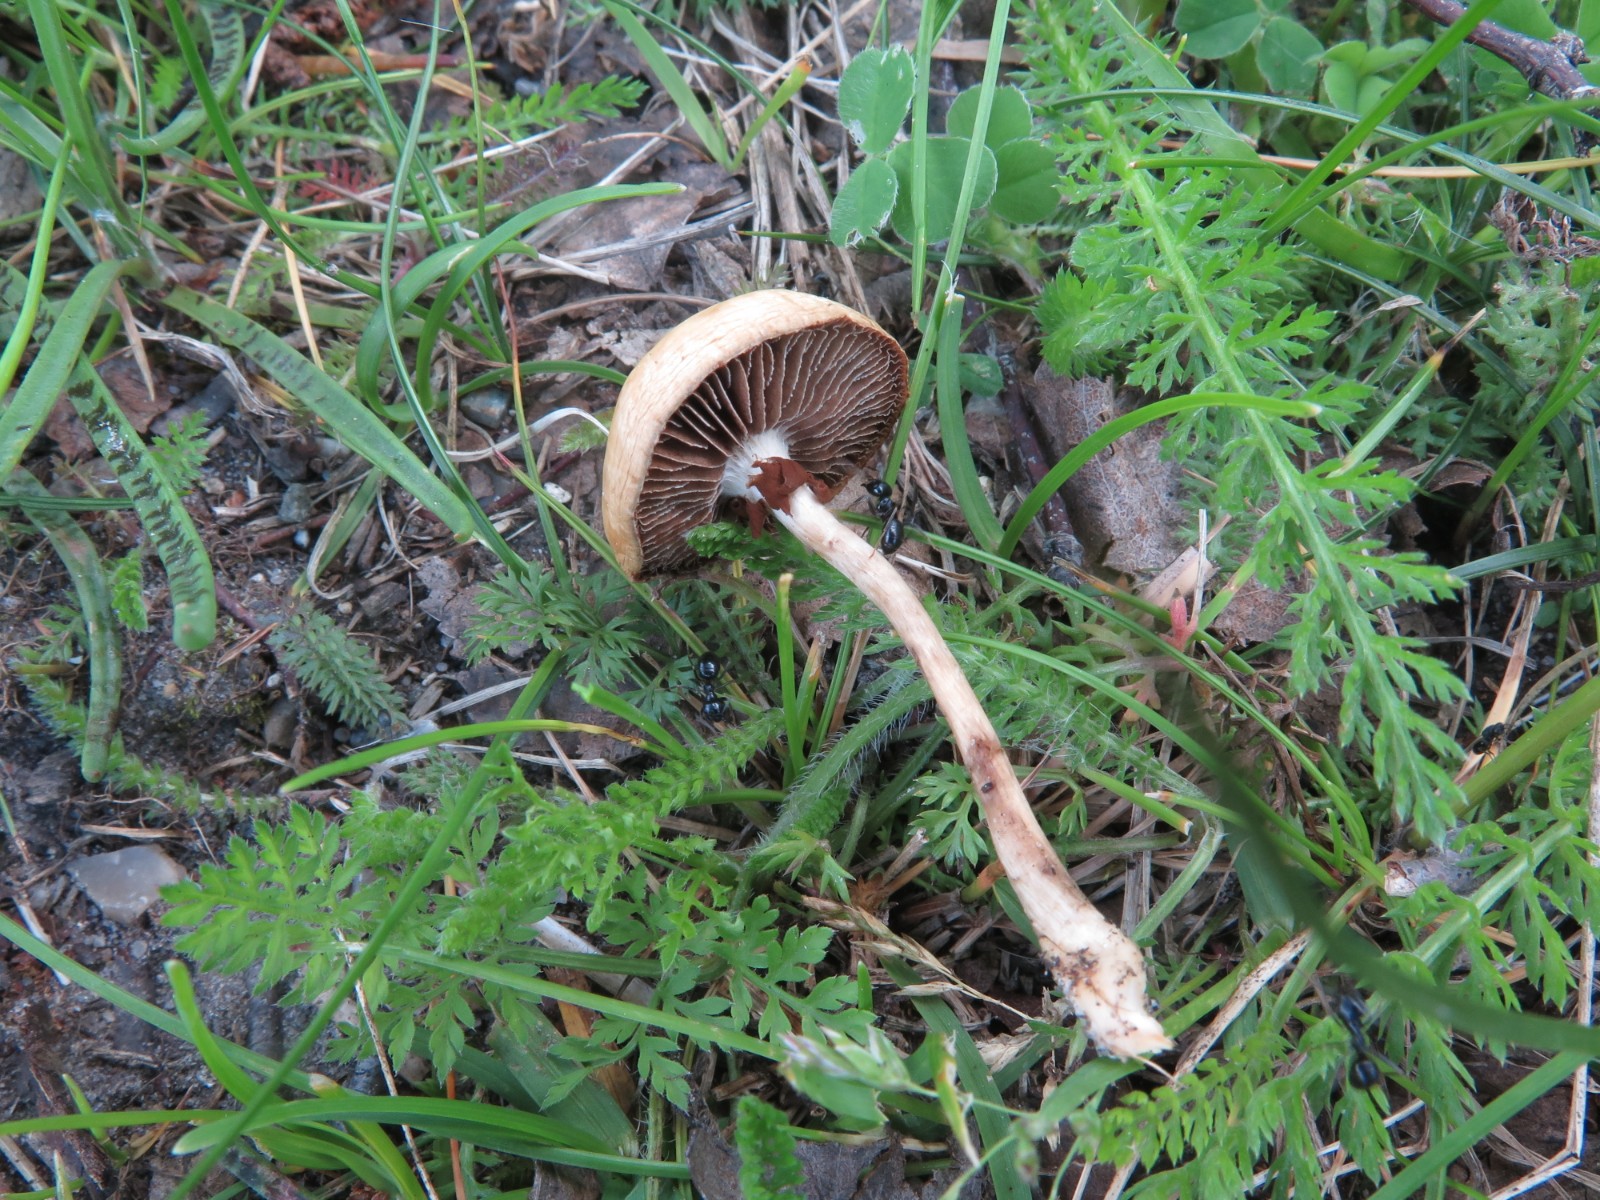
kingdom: Fungi
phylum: Basidiomycota
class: Agaricomycetes
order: Agaricales
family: Strophariaceae
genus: Agrocybe
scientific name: Agrocybe pediades
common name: almindelig agerhat
